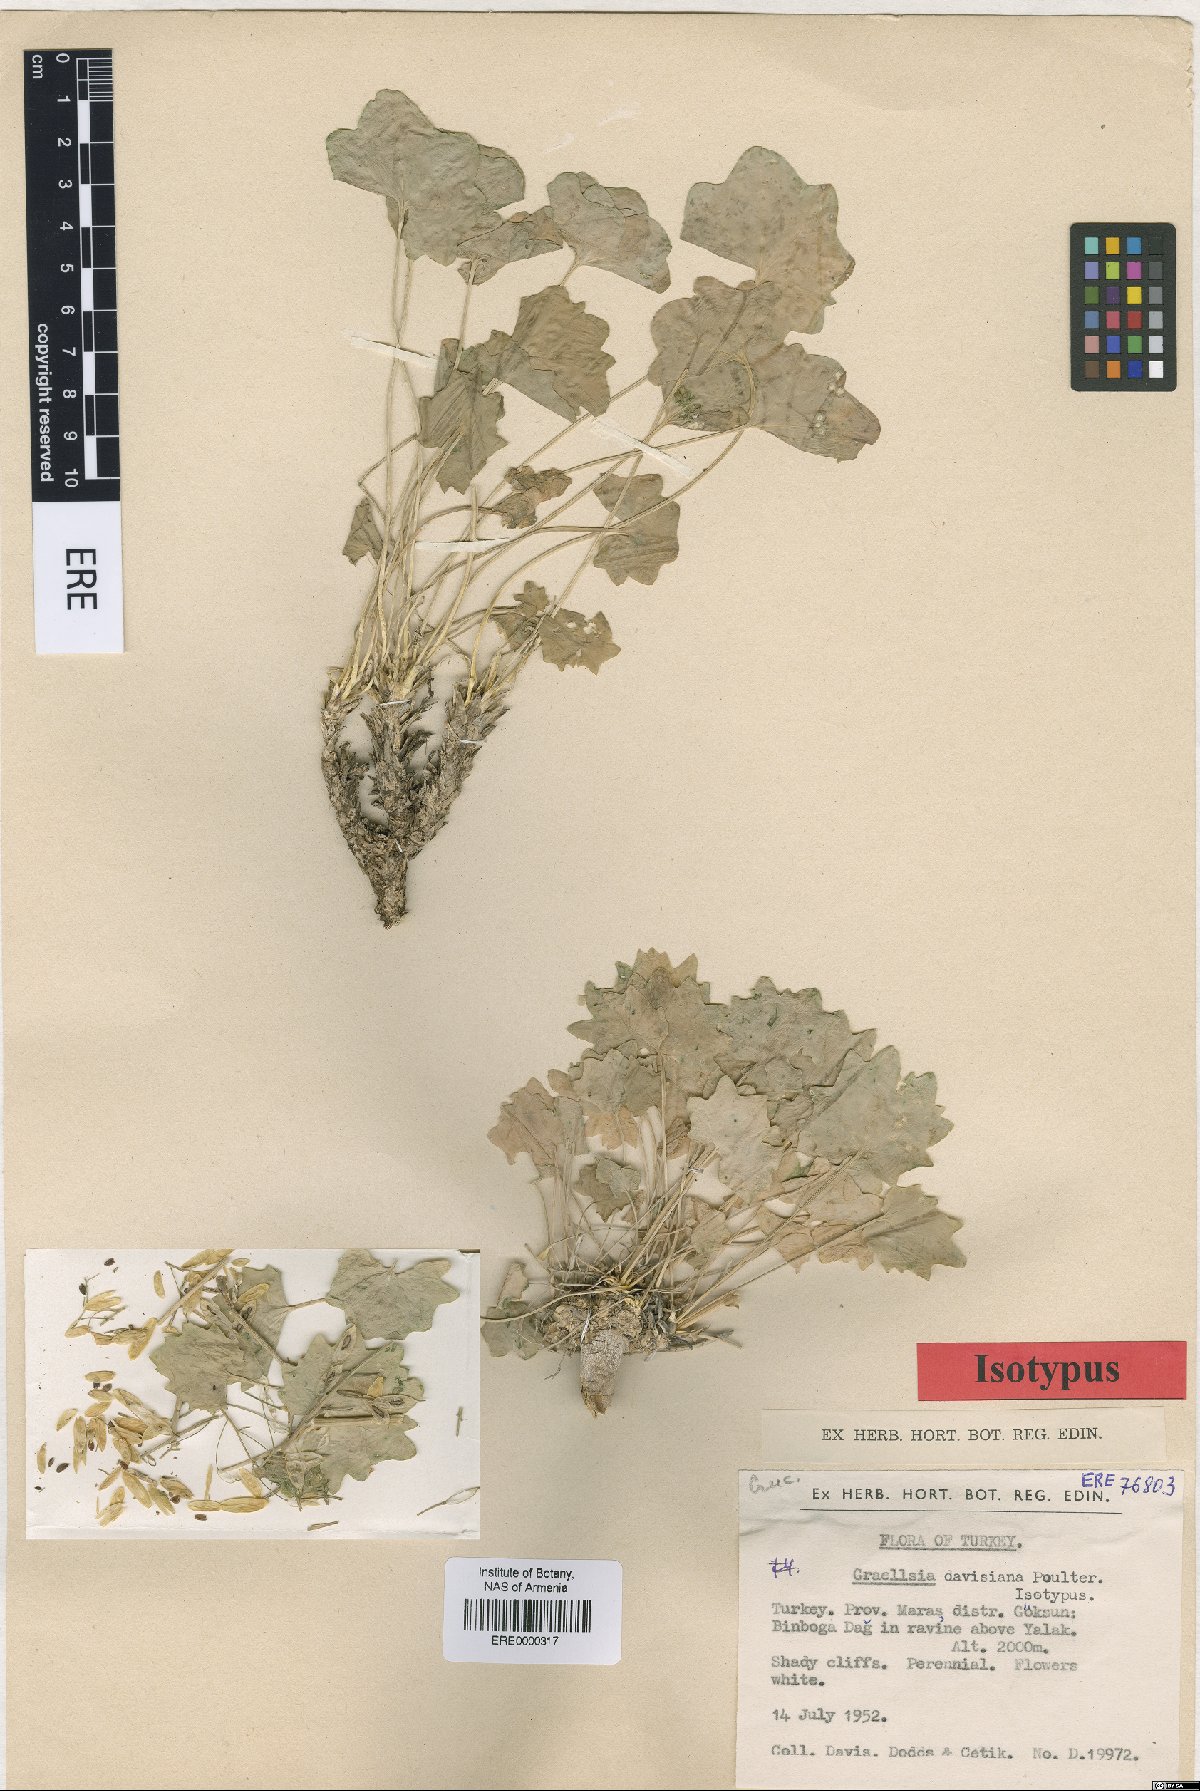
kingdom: Plantae
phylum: Tracheophyta
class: Magnoliopsida
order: Brassicales
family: Brassicaceae
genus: Graellsia
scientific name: Graellsia davisiana
